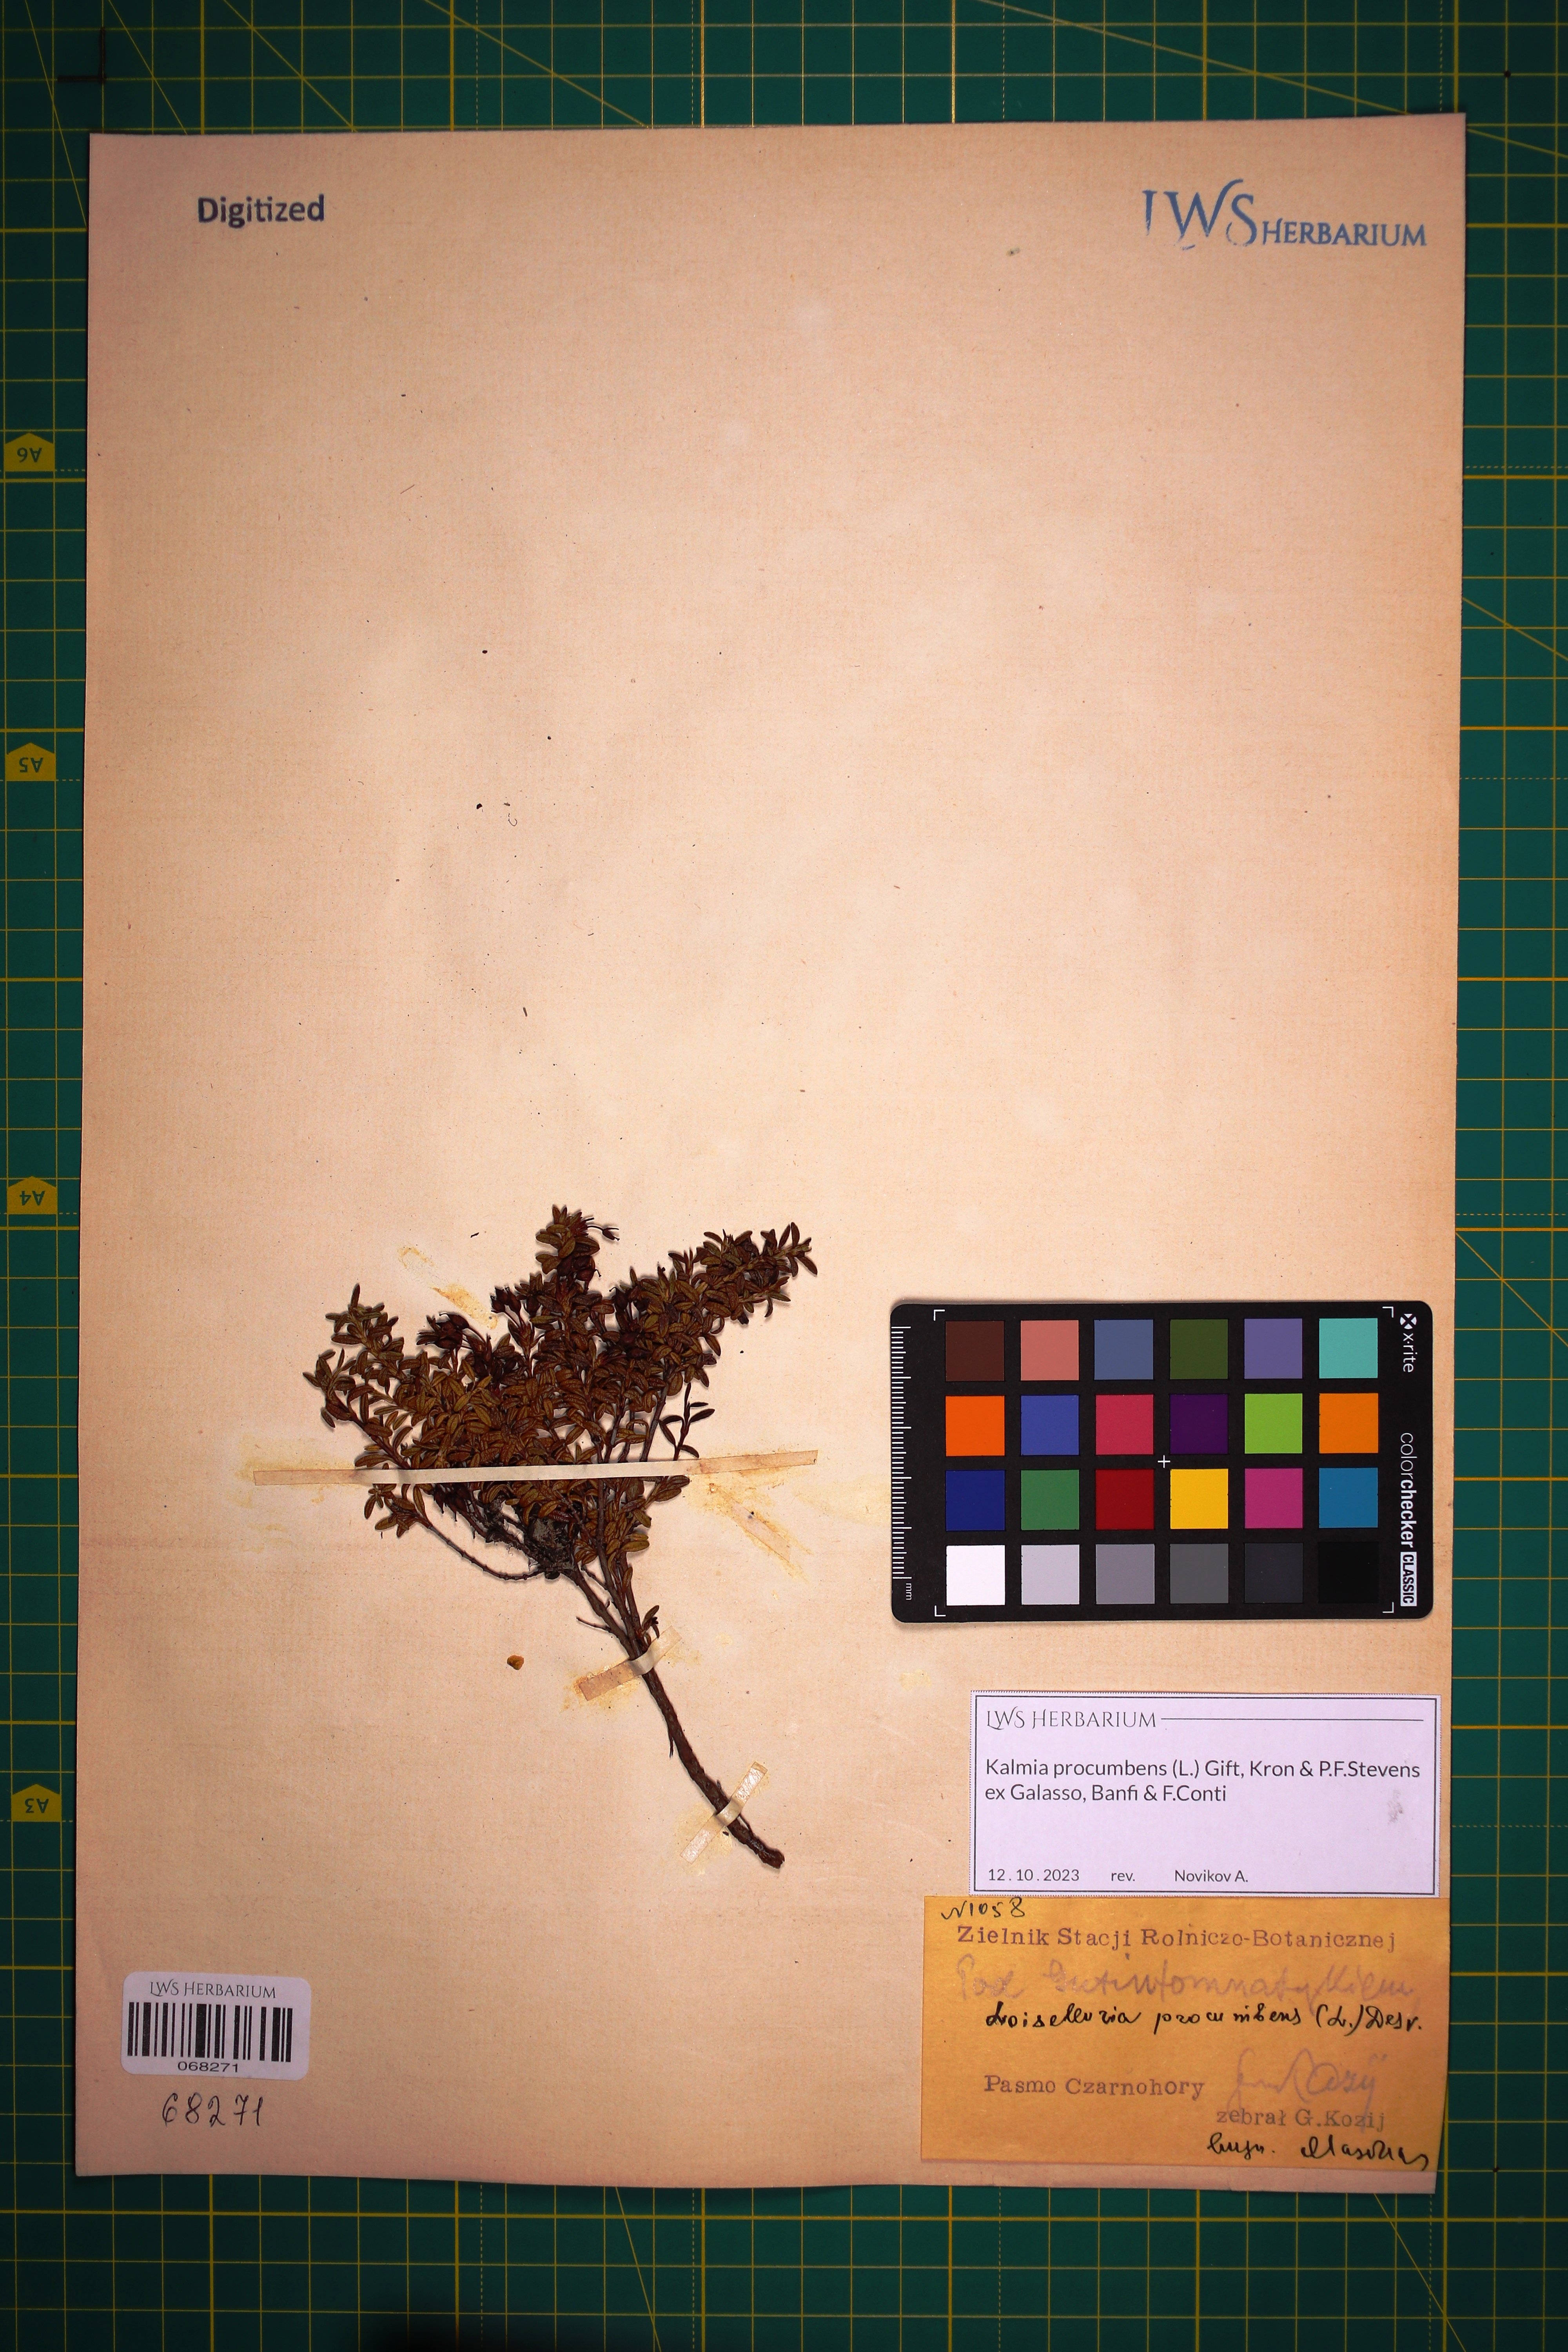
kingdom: Plantae
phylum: Tracheophyta
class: Magnoliopsida
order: Ericales
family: Ericaceae
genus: Kalmia
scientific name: Kalmia procumbens
